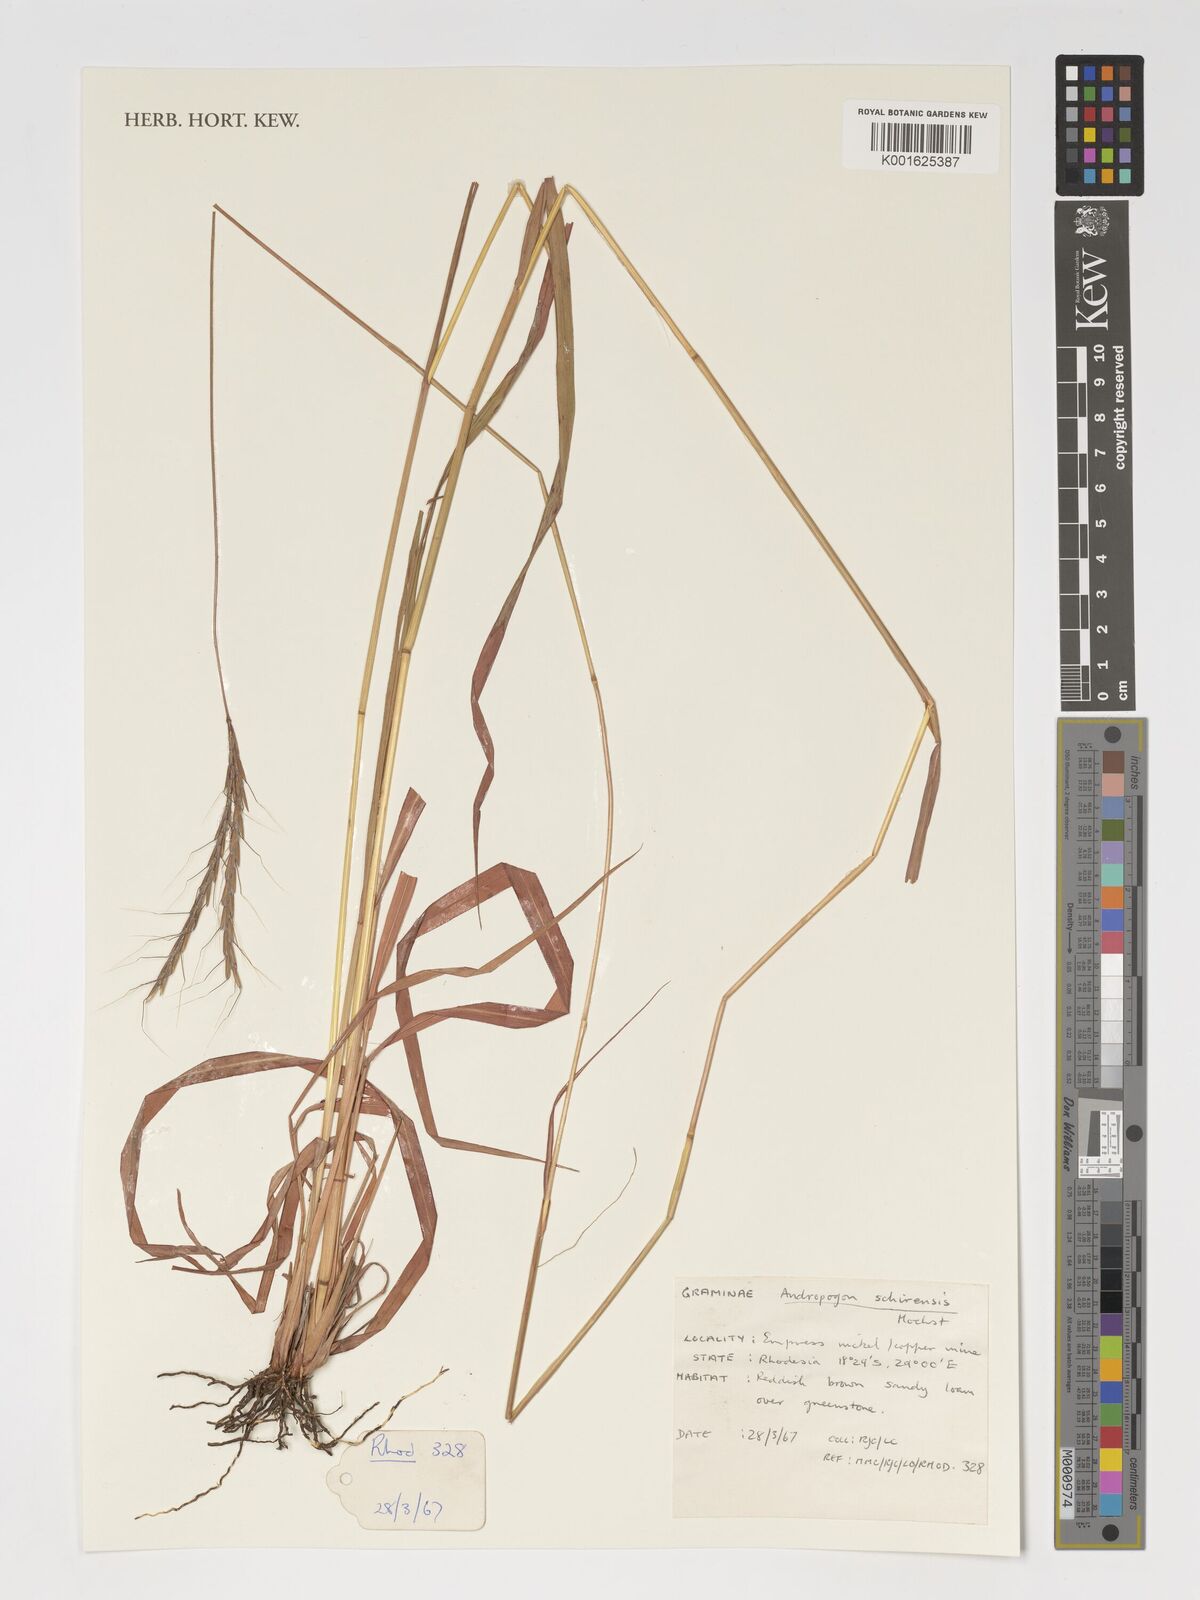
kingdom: Plantae
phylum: Tracheophyta
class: Liliopsida
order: Poales
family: Poaceae
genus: Andropogon
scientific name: Andropogon schirensis
